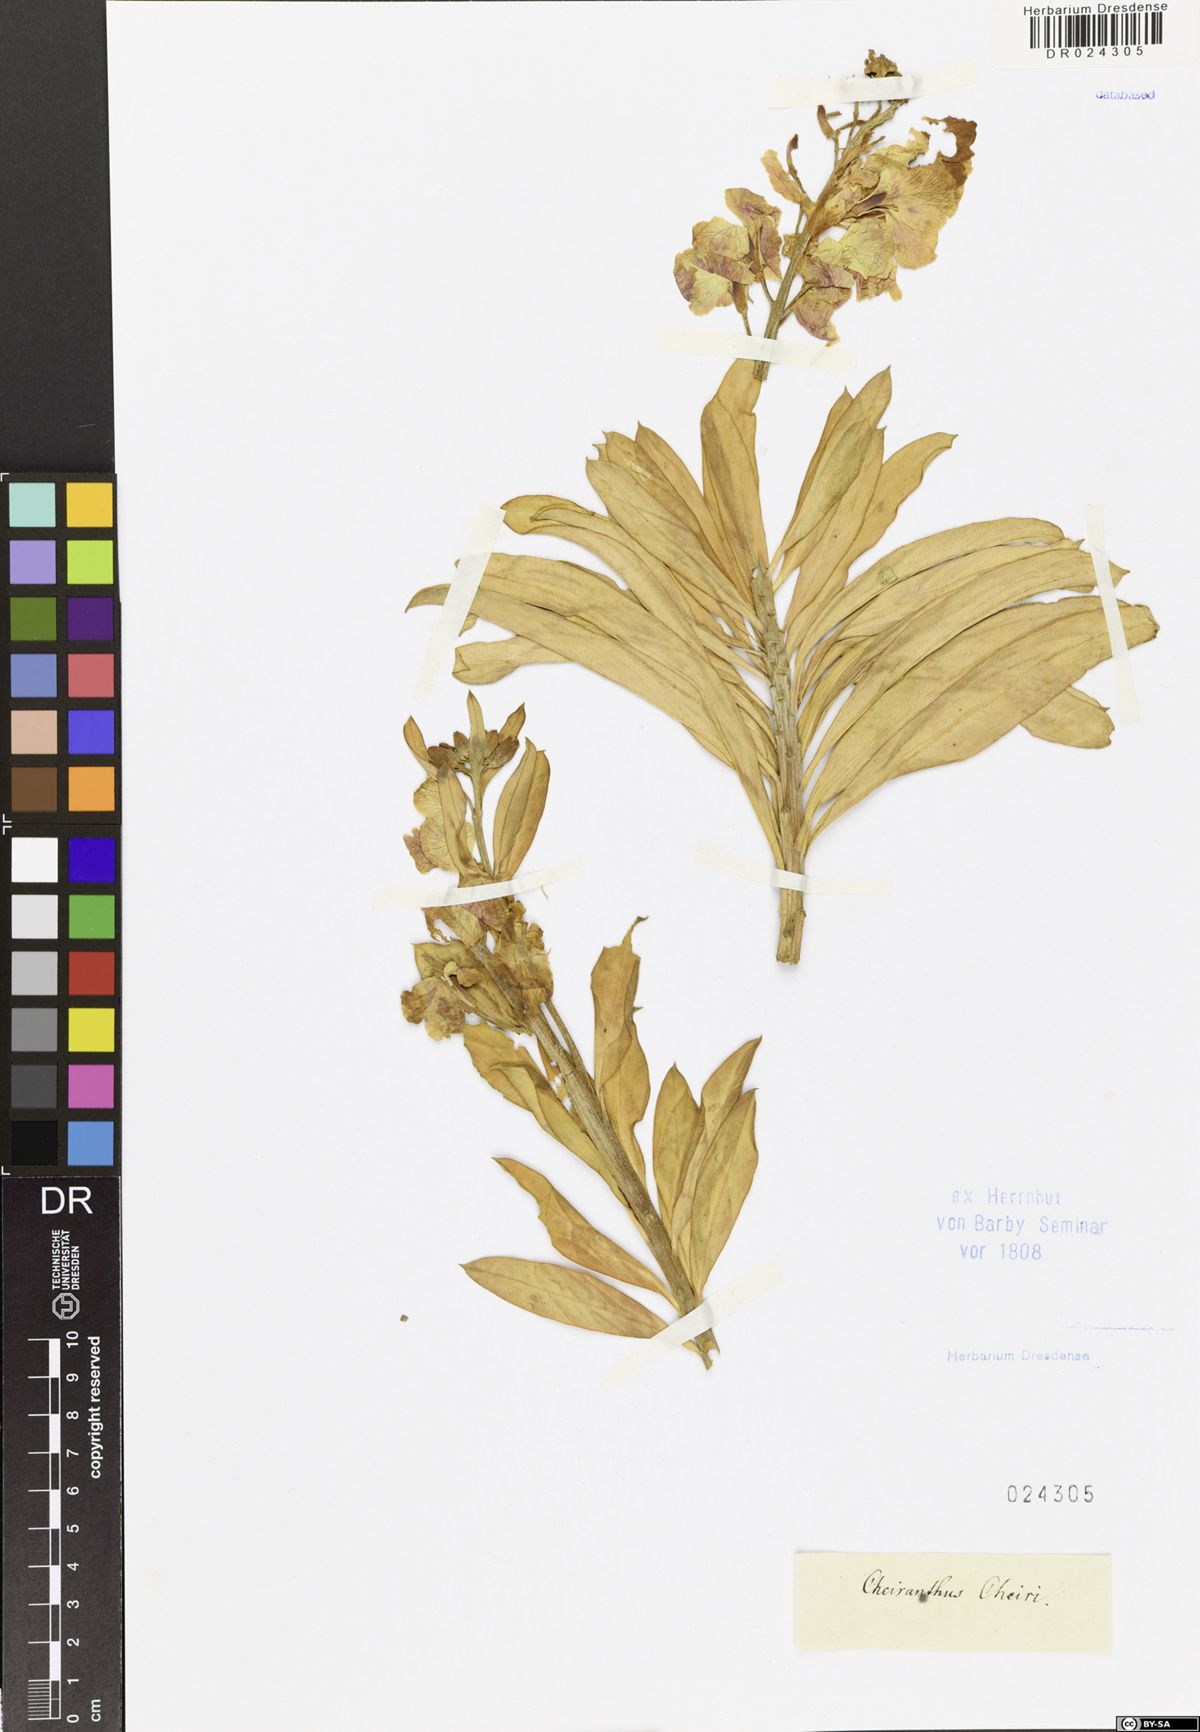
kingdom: Plantae
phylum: Tracheophyta
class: Magnoliopsida
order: Brassicales
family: Brassicaceae
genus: Erysimum
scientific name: Erysimum cheiri
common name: Wallflower
